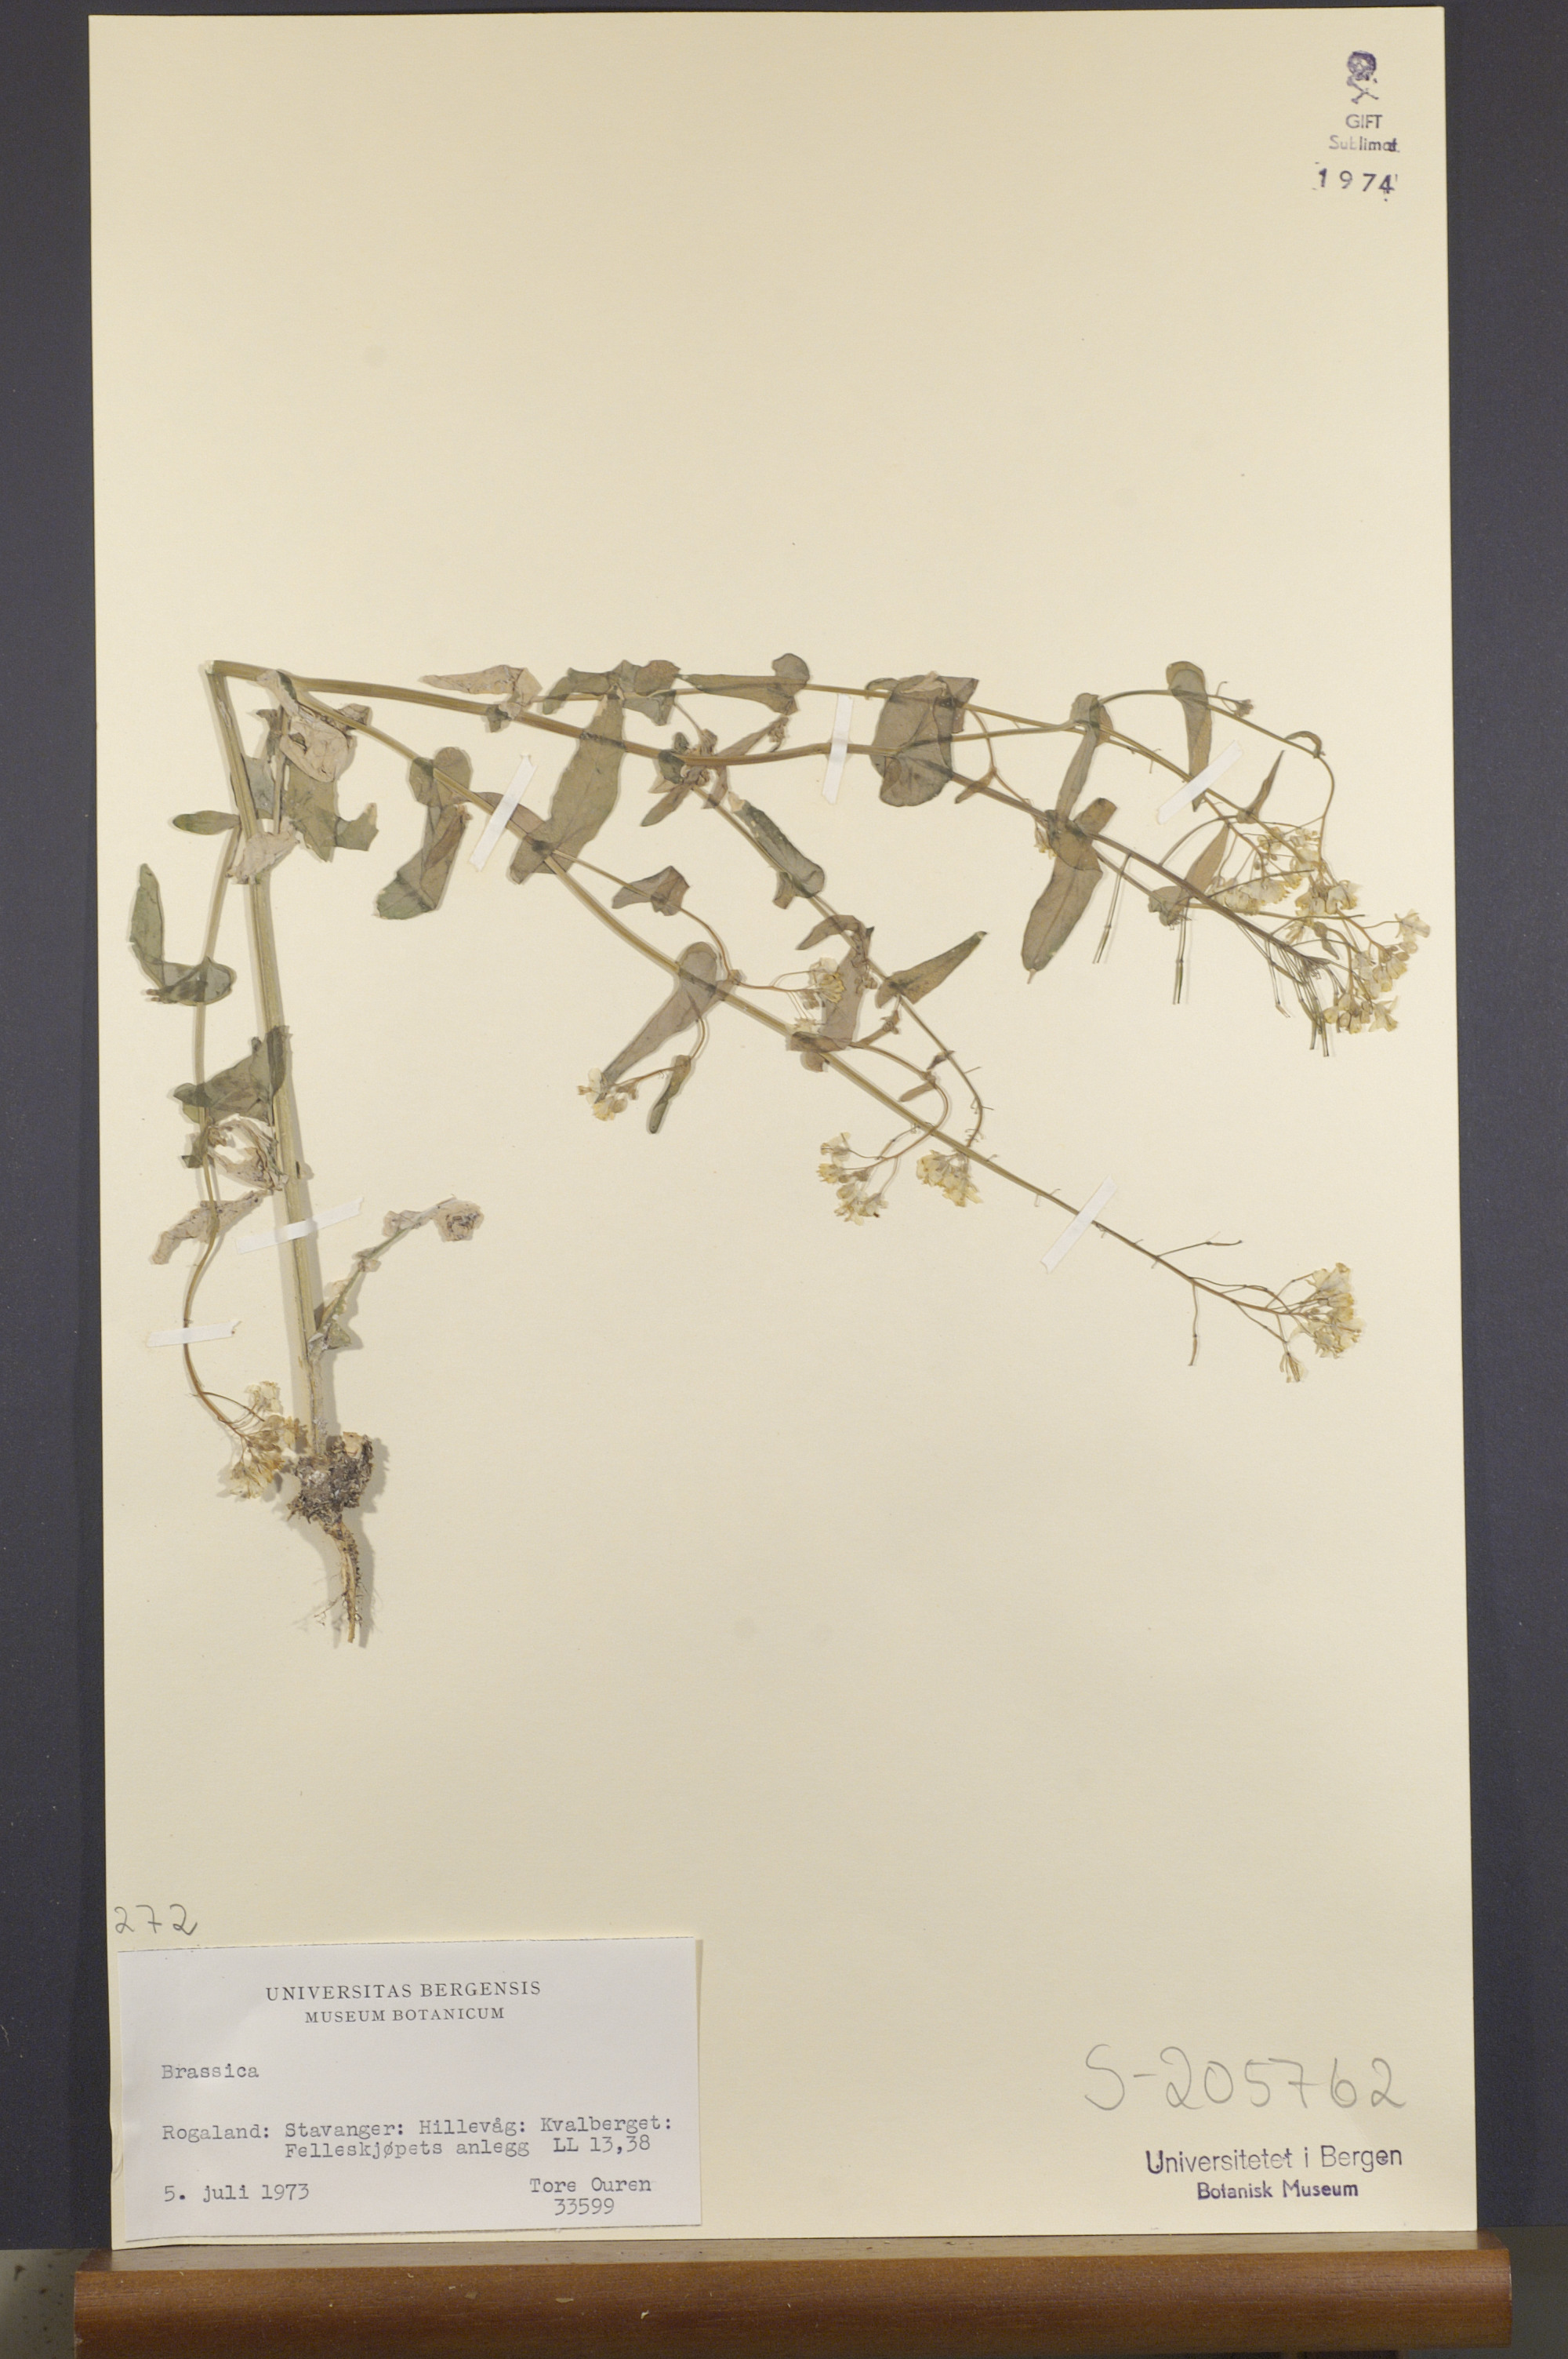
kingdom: Plantae
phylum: Tracheophyta
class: Magnoliopsida
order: Brassicales
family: Brassicaceae
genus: Brassica
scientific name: Brassica
